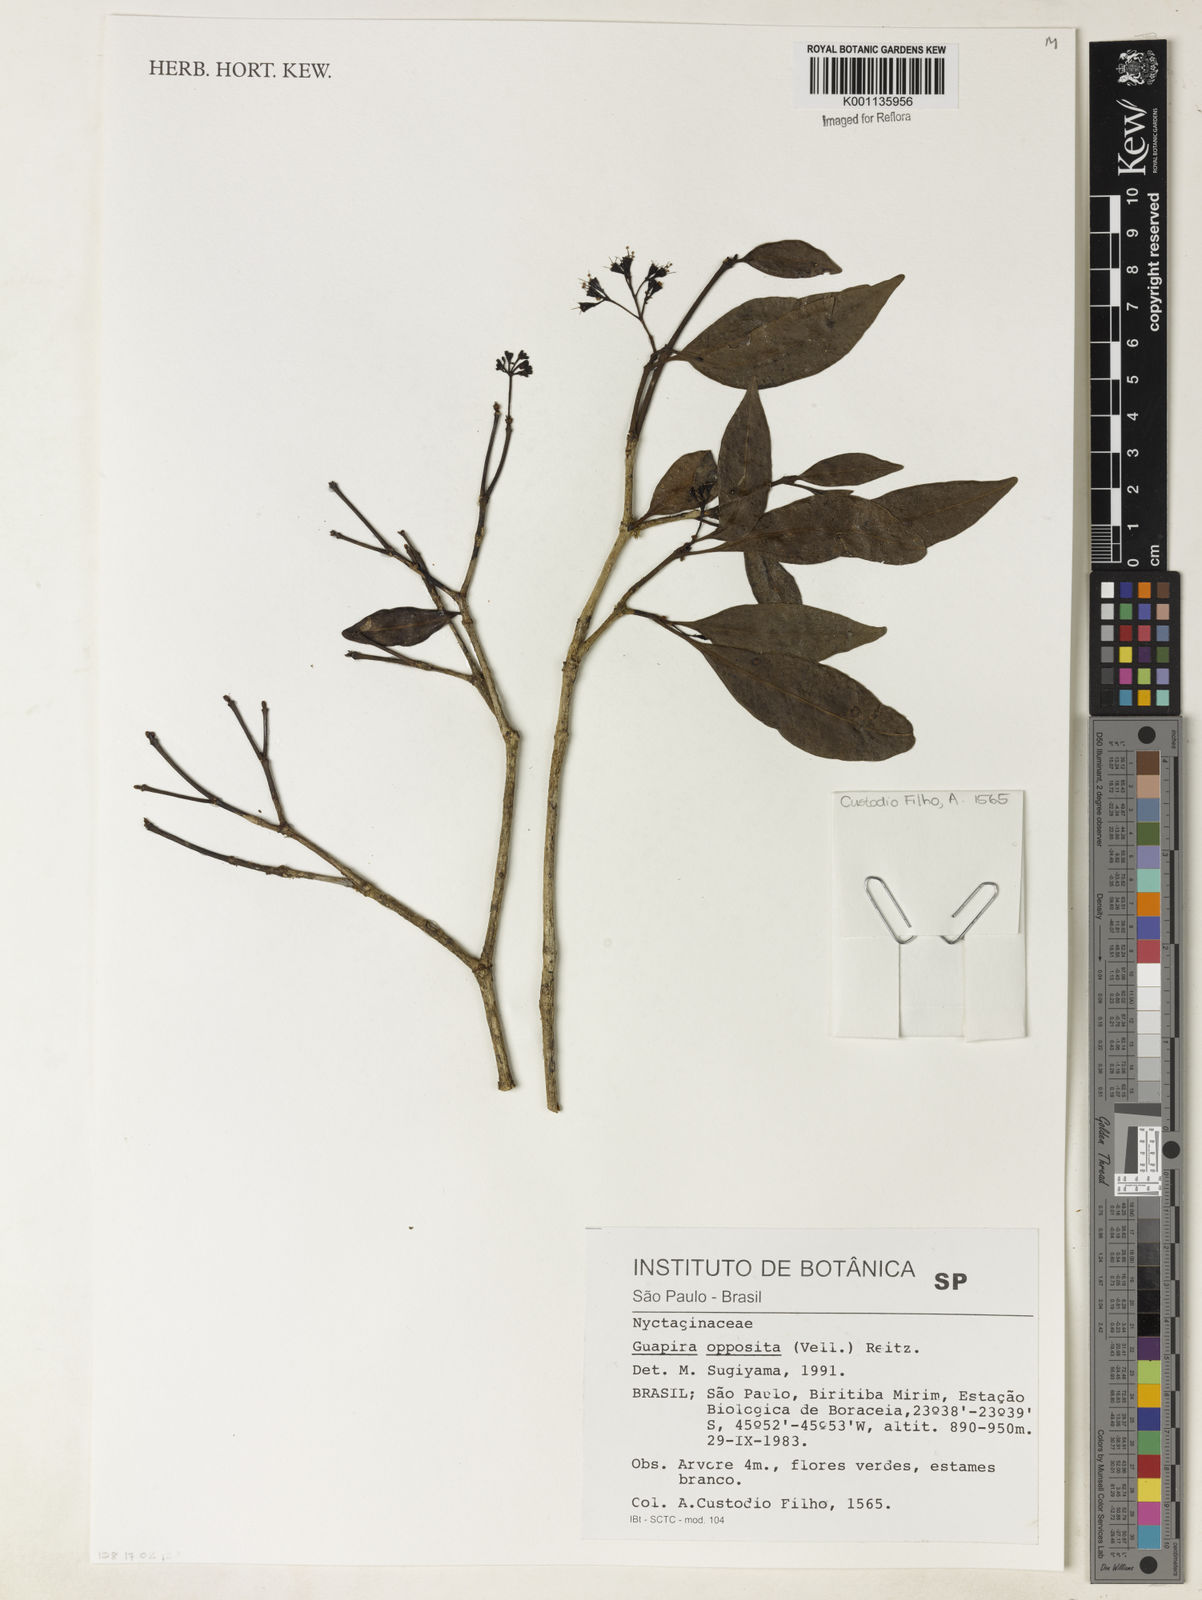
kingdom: Plantae
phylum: Tracheophyta
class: Magnoliopsida
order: Caryophyllales
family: Nyctaginaceae
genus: Guapira
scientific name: Guapira opposita
